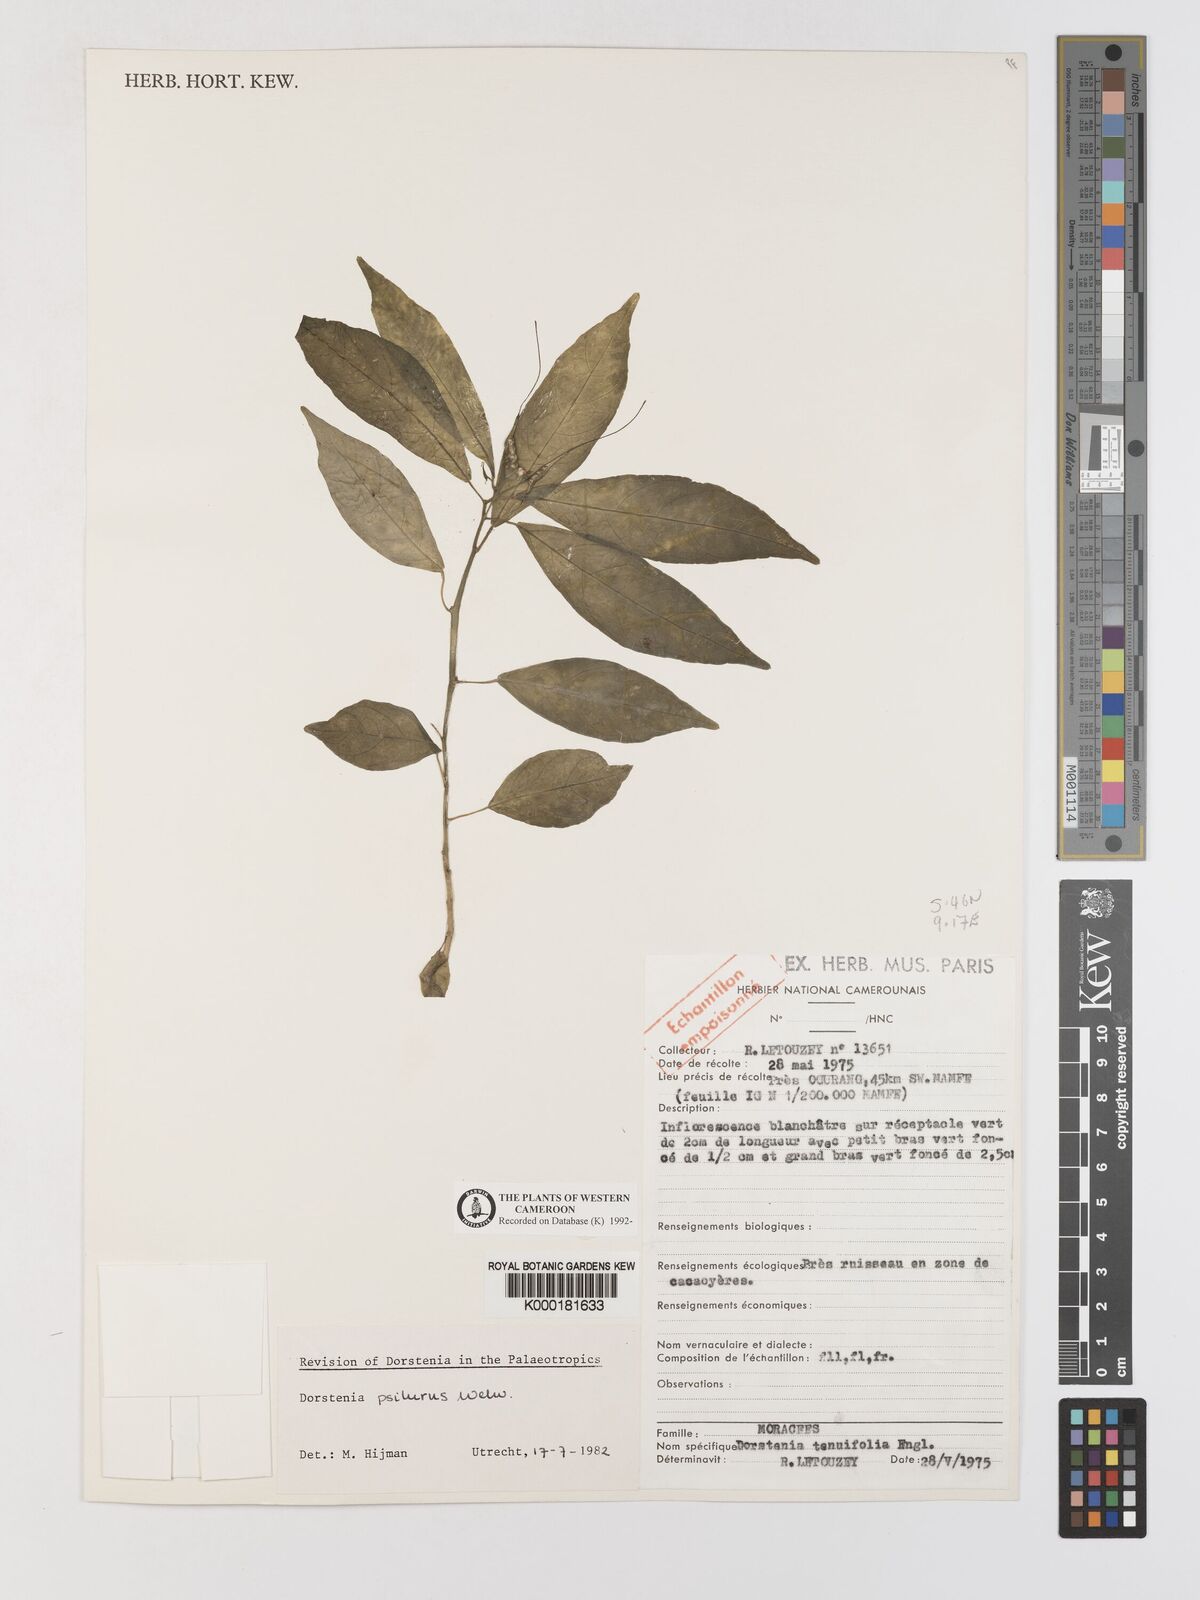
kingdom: Plantae
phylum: Tracheophyta
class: Magnoliopsida
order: Rosales
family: Moraceae
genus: Dorstenia
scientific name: Dorstenia psilurus
